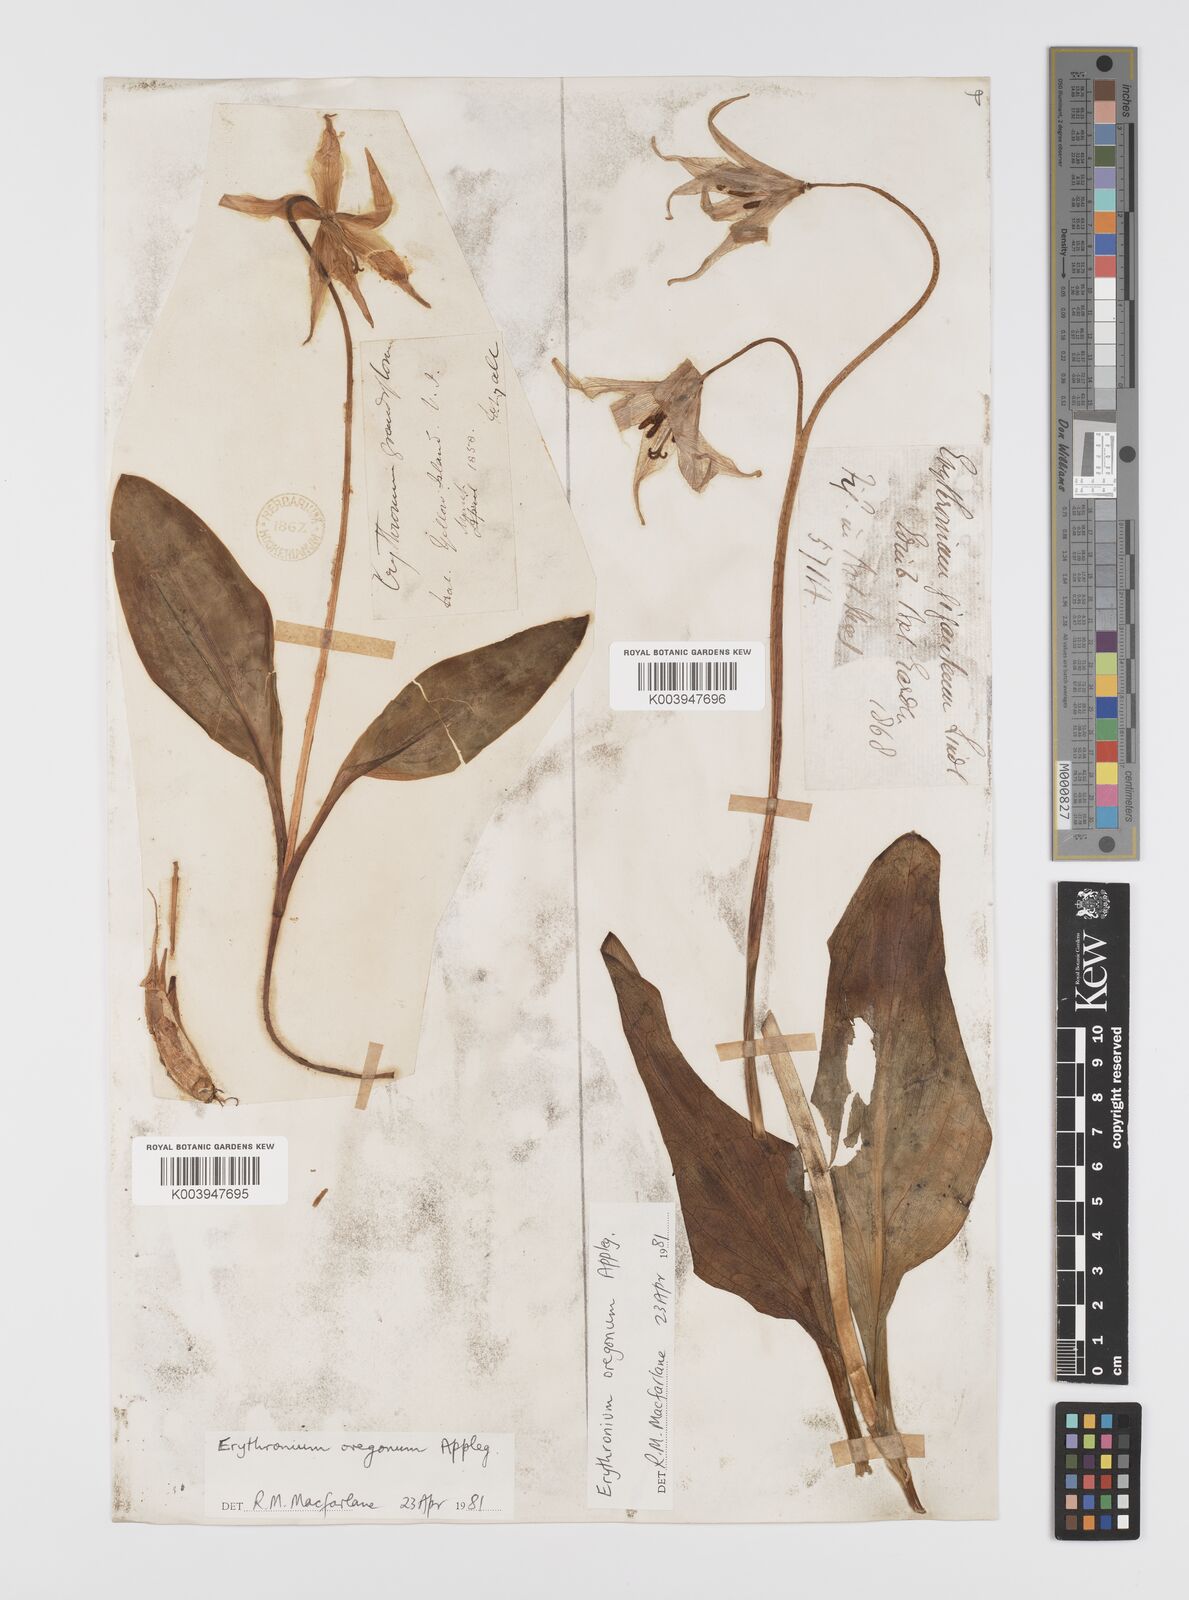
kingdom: Plantae
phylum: Tracheophyta
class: Liliopsida
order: Liliales
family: Liliaceae
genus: Erythronium
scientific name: Erythronium oregonum
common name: Giant adder's-tongue
